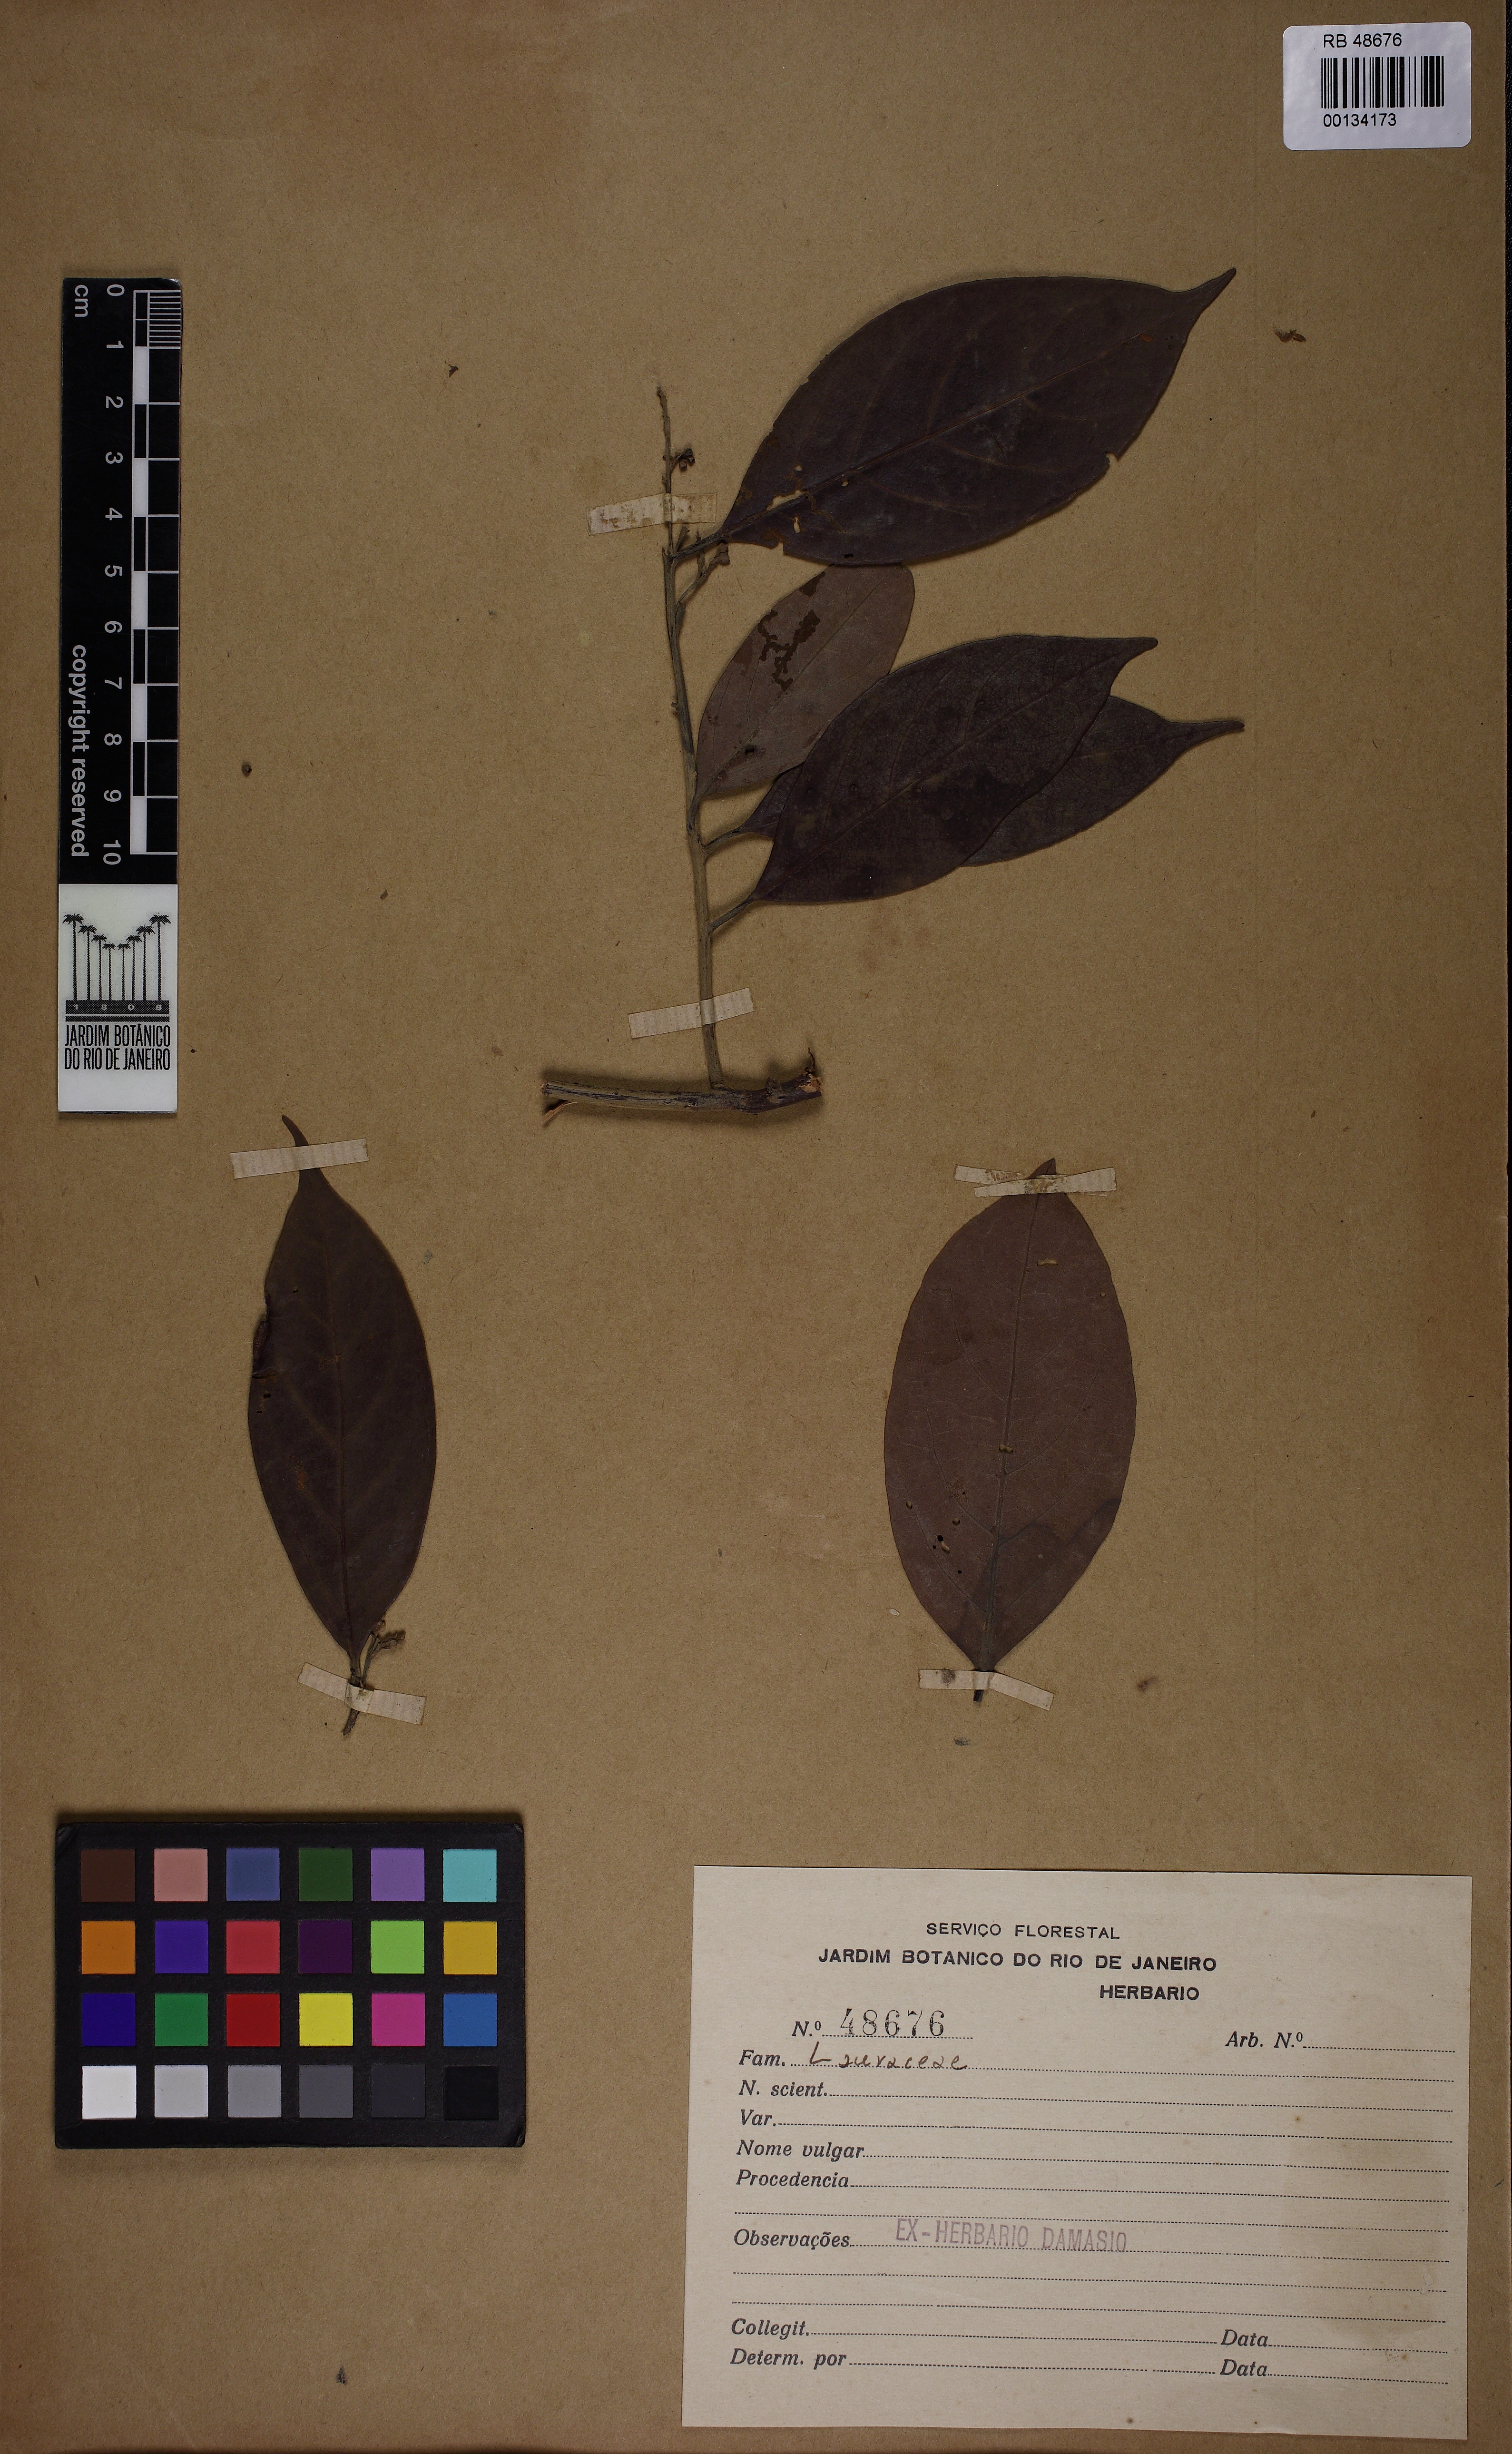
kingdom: Plantae
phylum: Tracheophyta
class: Magnoliopsida
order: Laurales
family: Lauraceae
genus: Licaria
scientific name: Licaria
